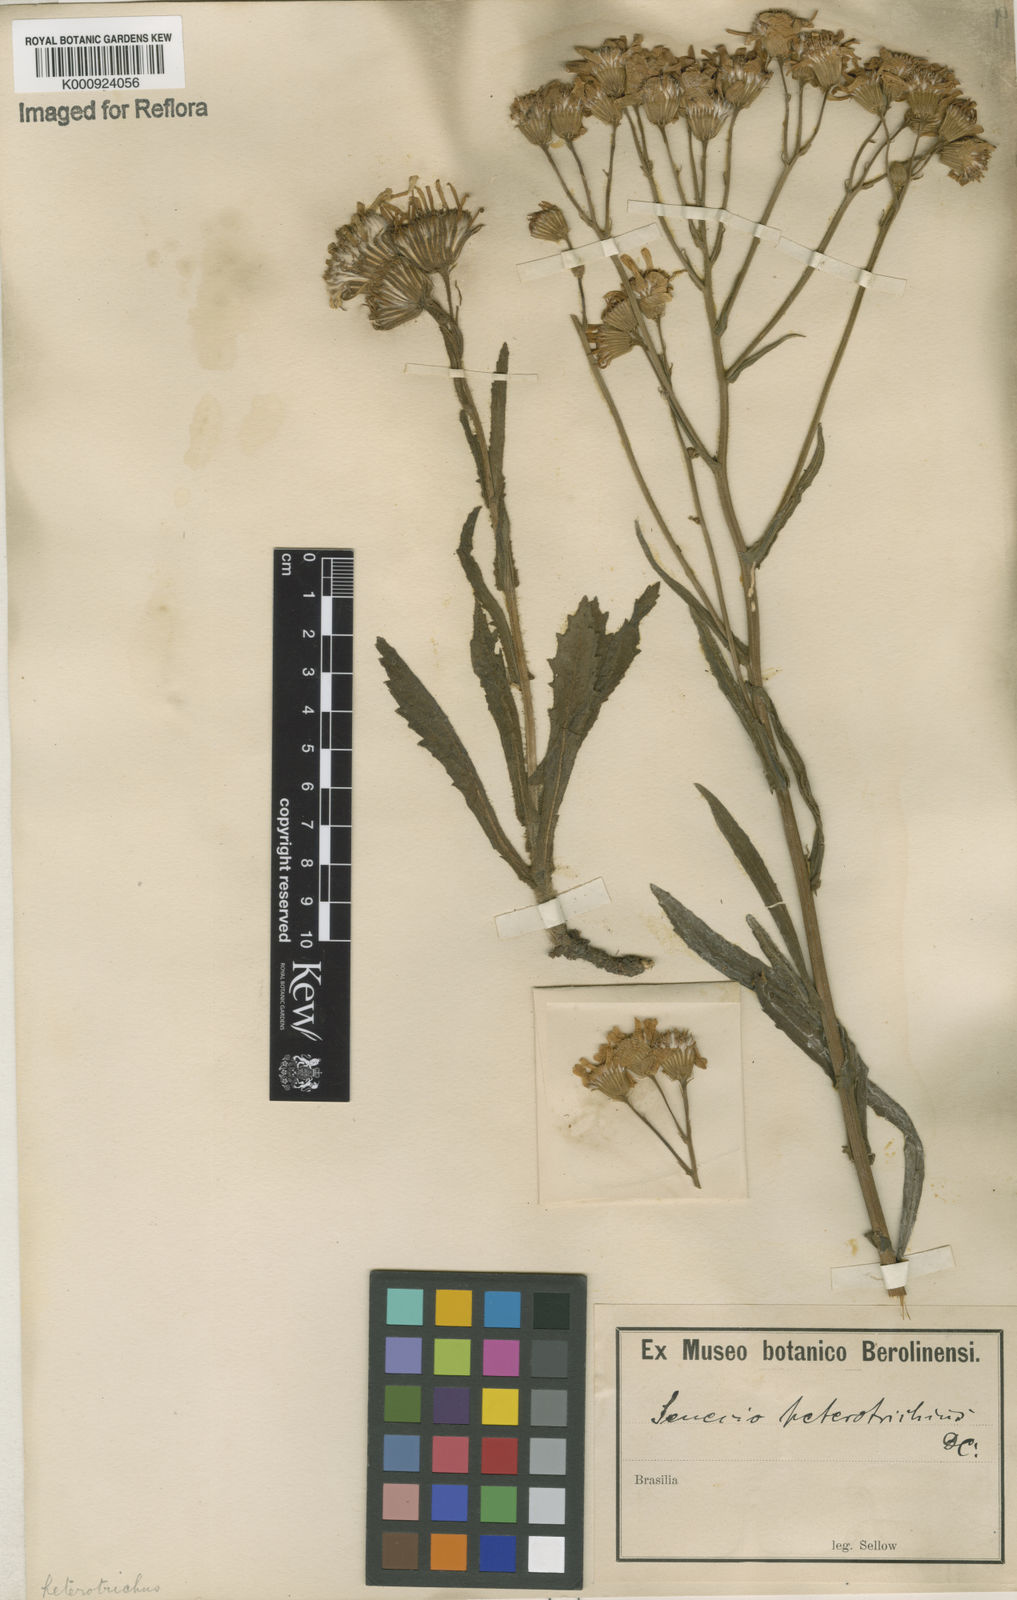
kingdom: Plantae
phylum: Tracheophyta
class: Magnoliopsida
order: Asterales
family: Asteraceae
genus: Senecio
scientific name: Senecio heterotrichius
